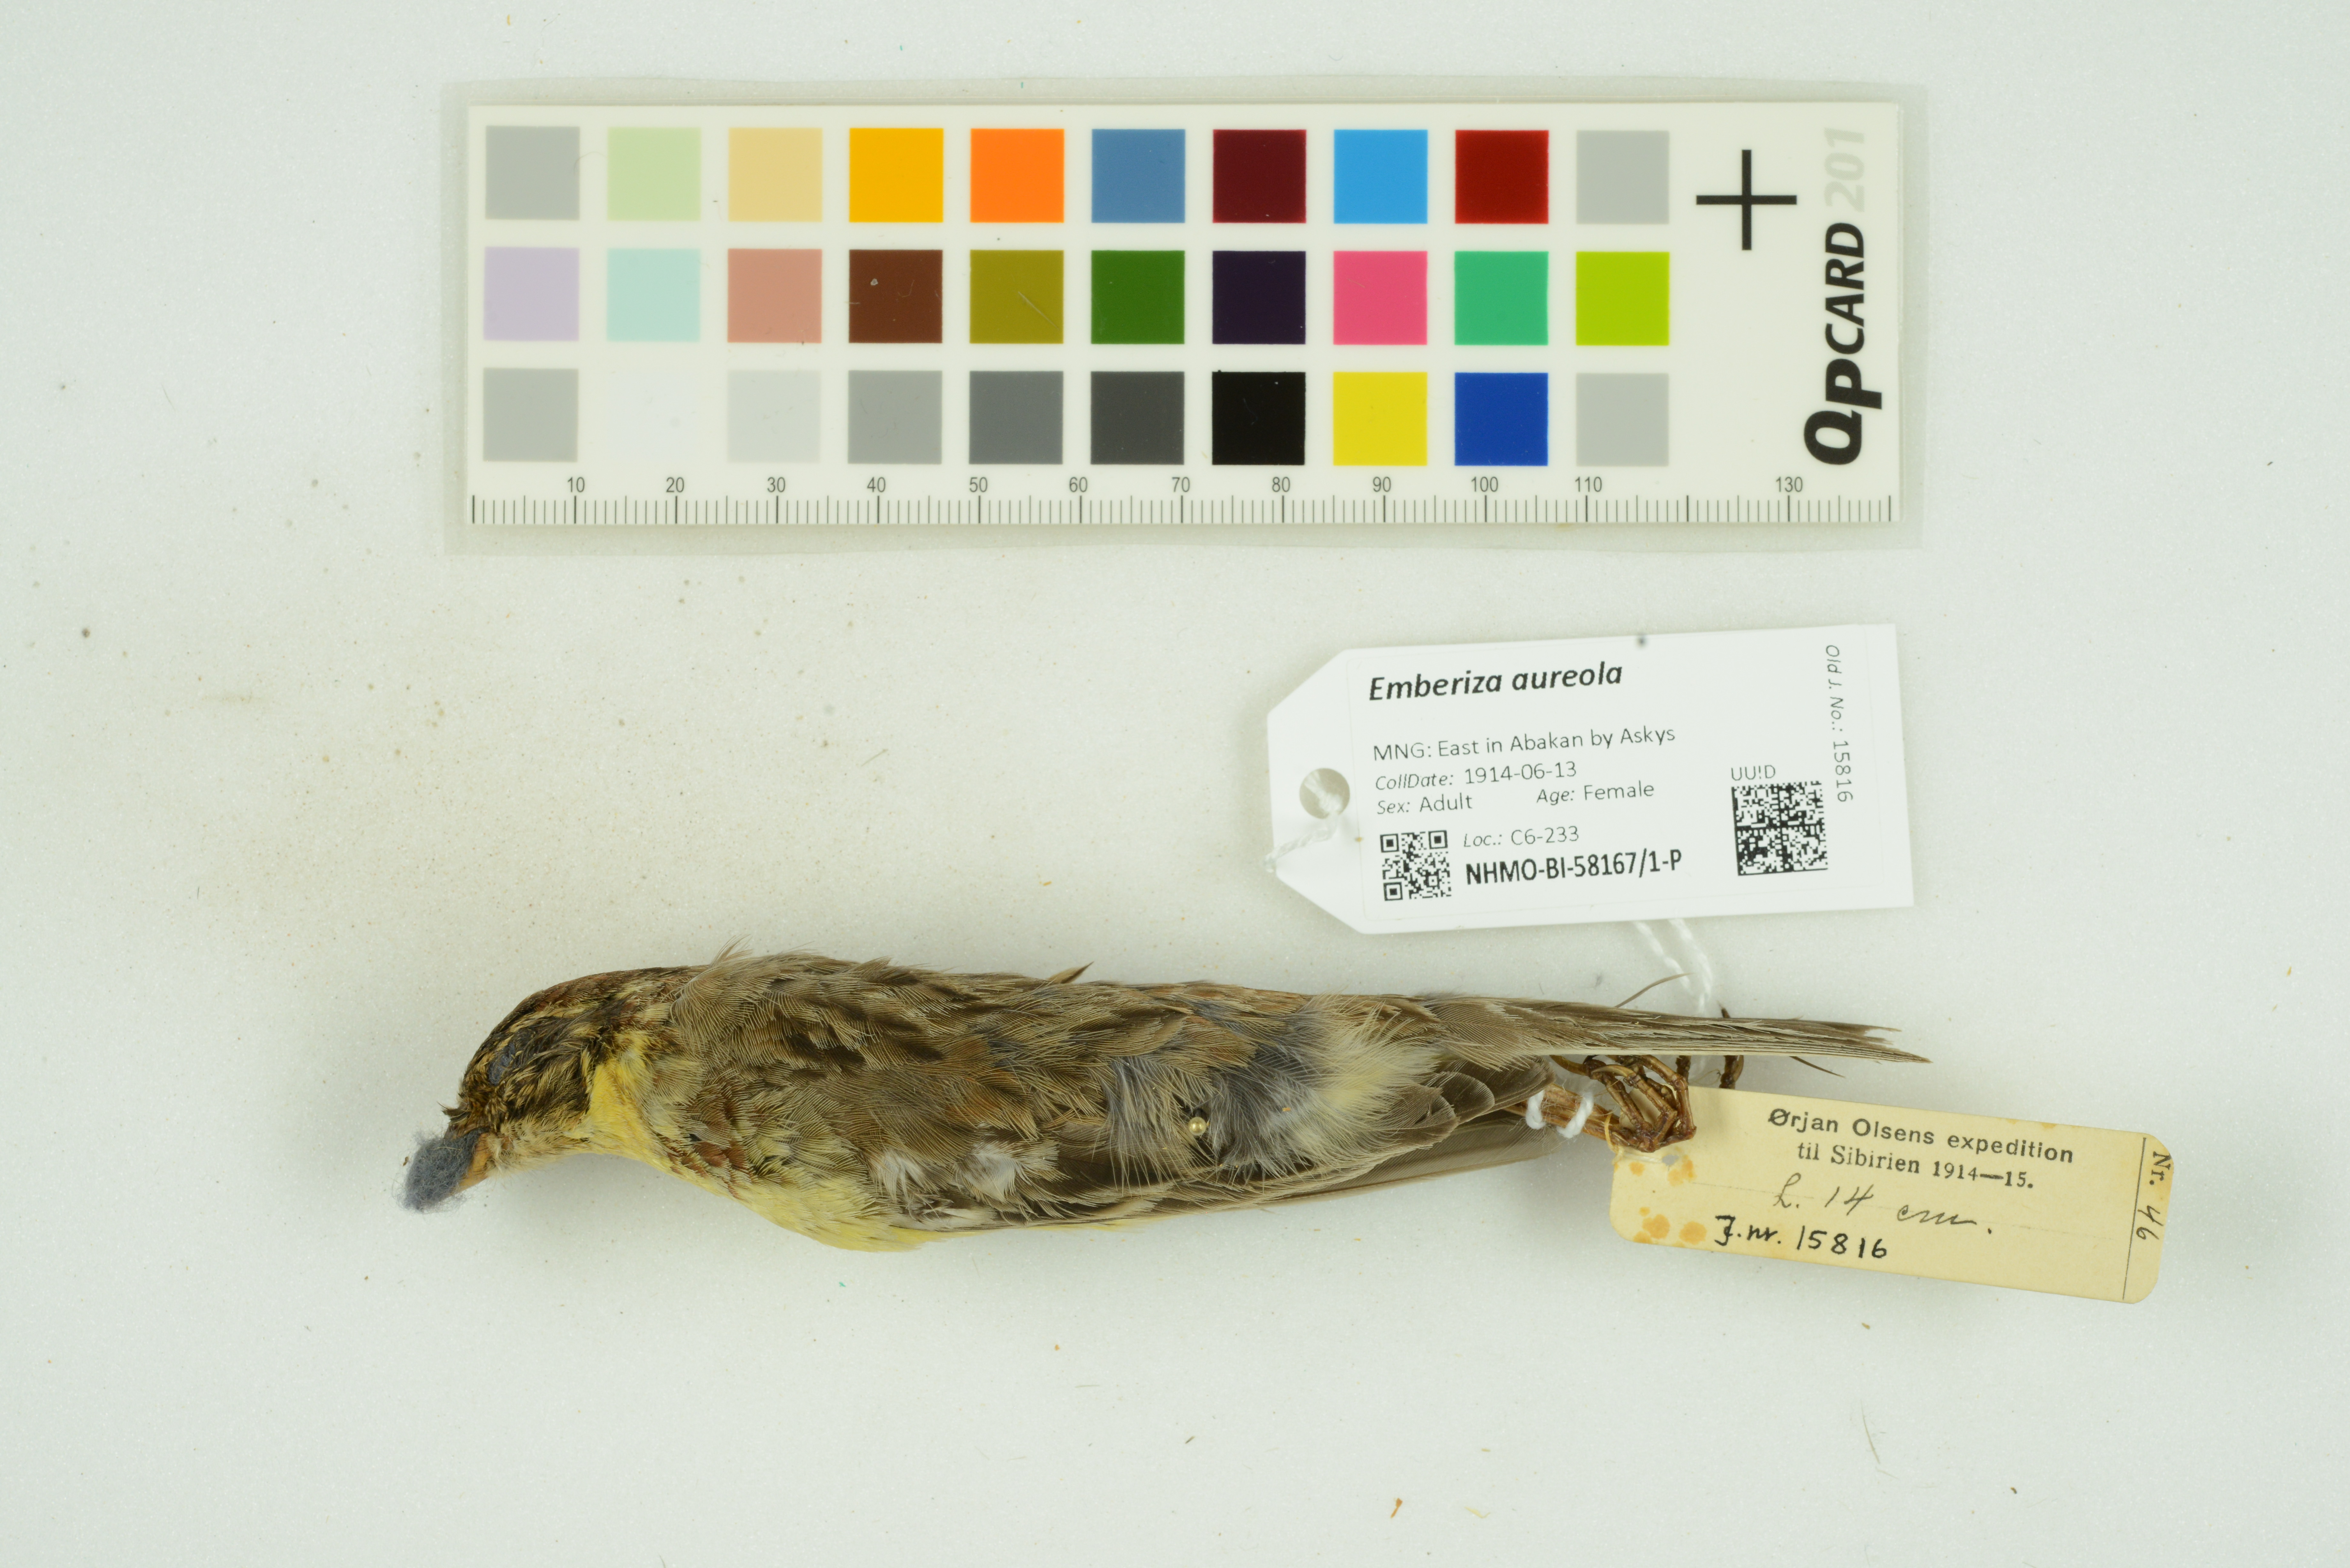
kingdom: Animalia
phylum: Chordata
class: Aves
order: Passeriformes
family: Emberizidae
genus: Emberiza
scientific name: Emberiza aureola
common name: Yellow-breasted bunting
